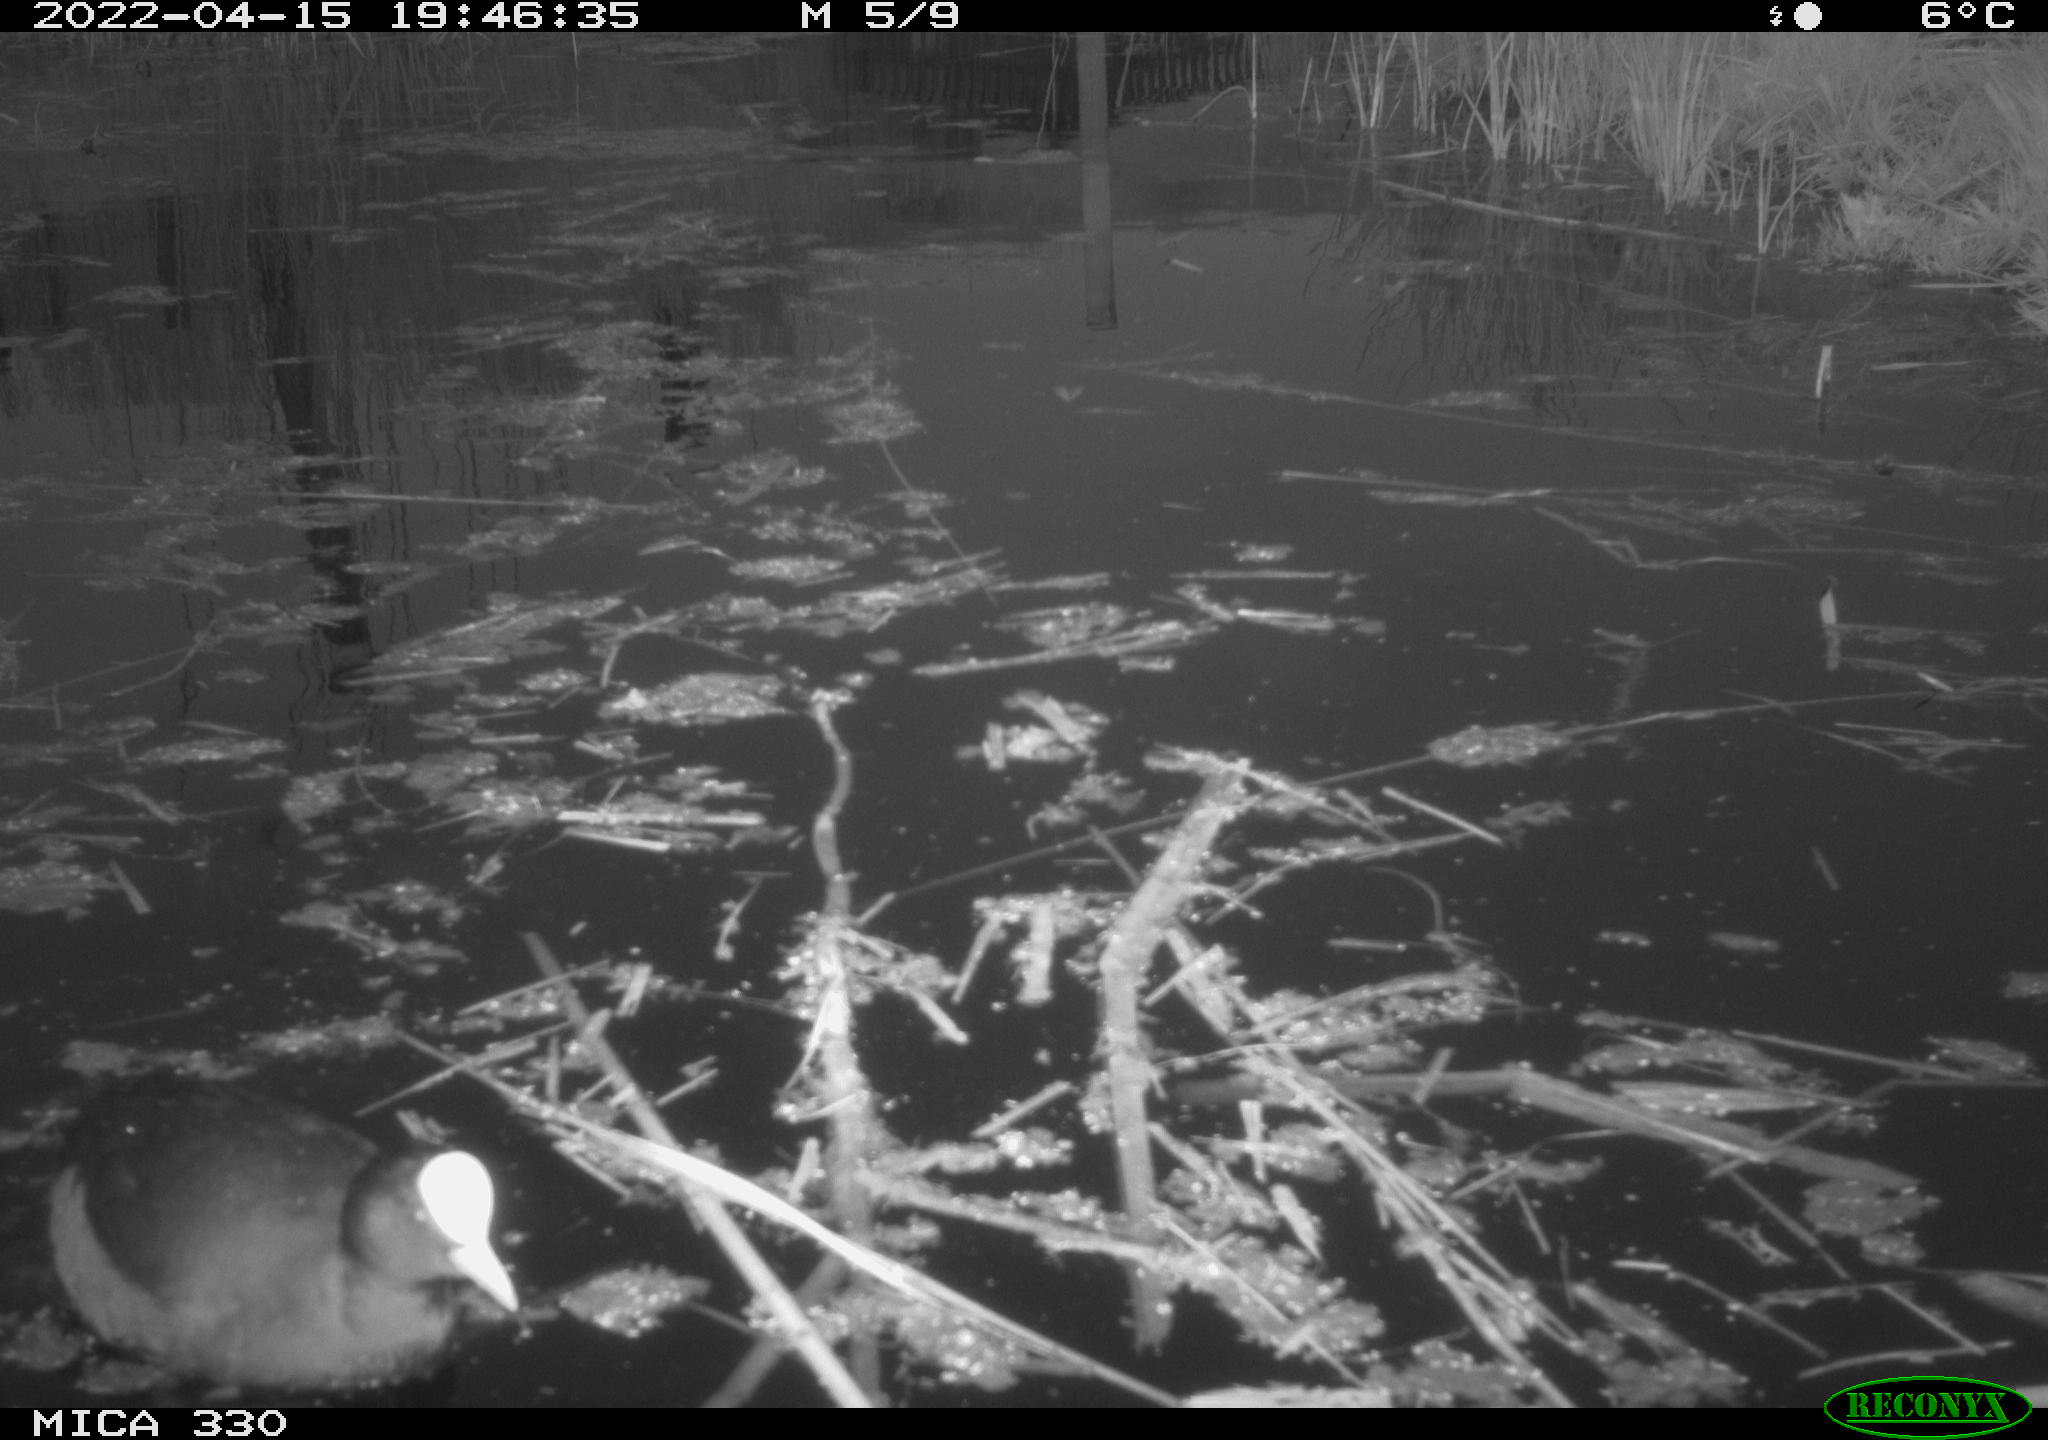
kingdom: Animalia
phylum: Chordata
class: Aves
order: Gruiformes
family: Rallidae
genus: Fulica
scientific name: Fulica atra
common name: Eurasian coot
